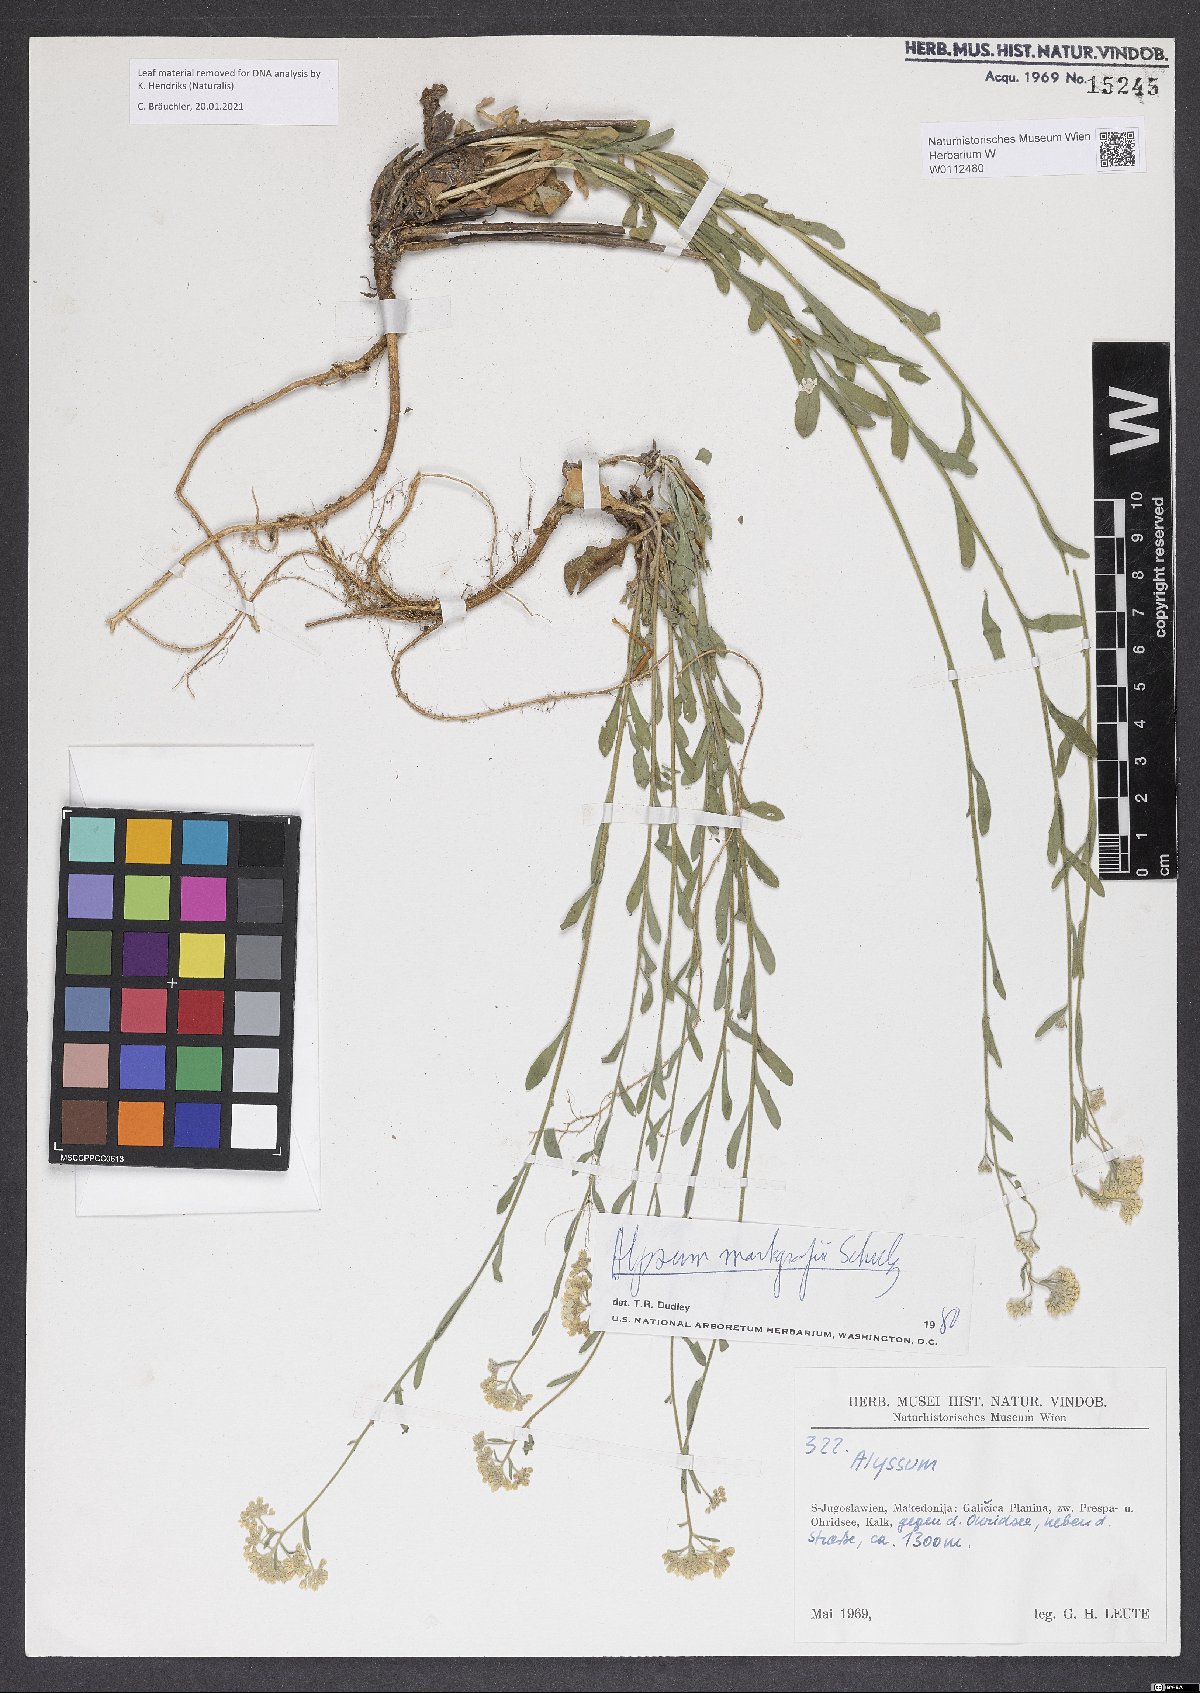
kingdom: Plantae
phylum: Tracheophyta
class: Magnoliopsida
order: Brassicales
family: Brassicaceae
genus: Odontarrhena
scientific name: Odontarrhena markgrafii
